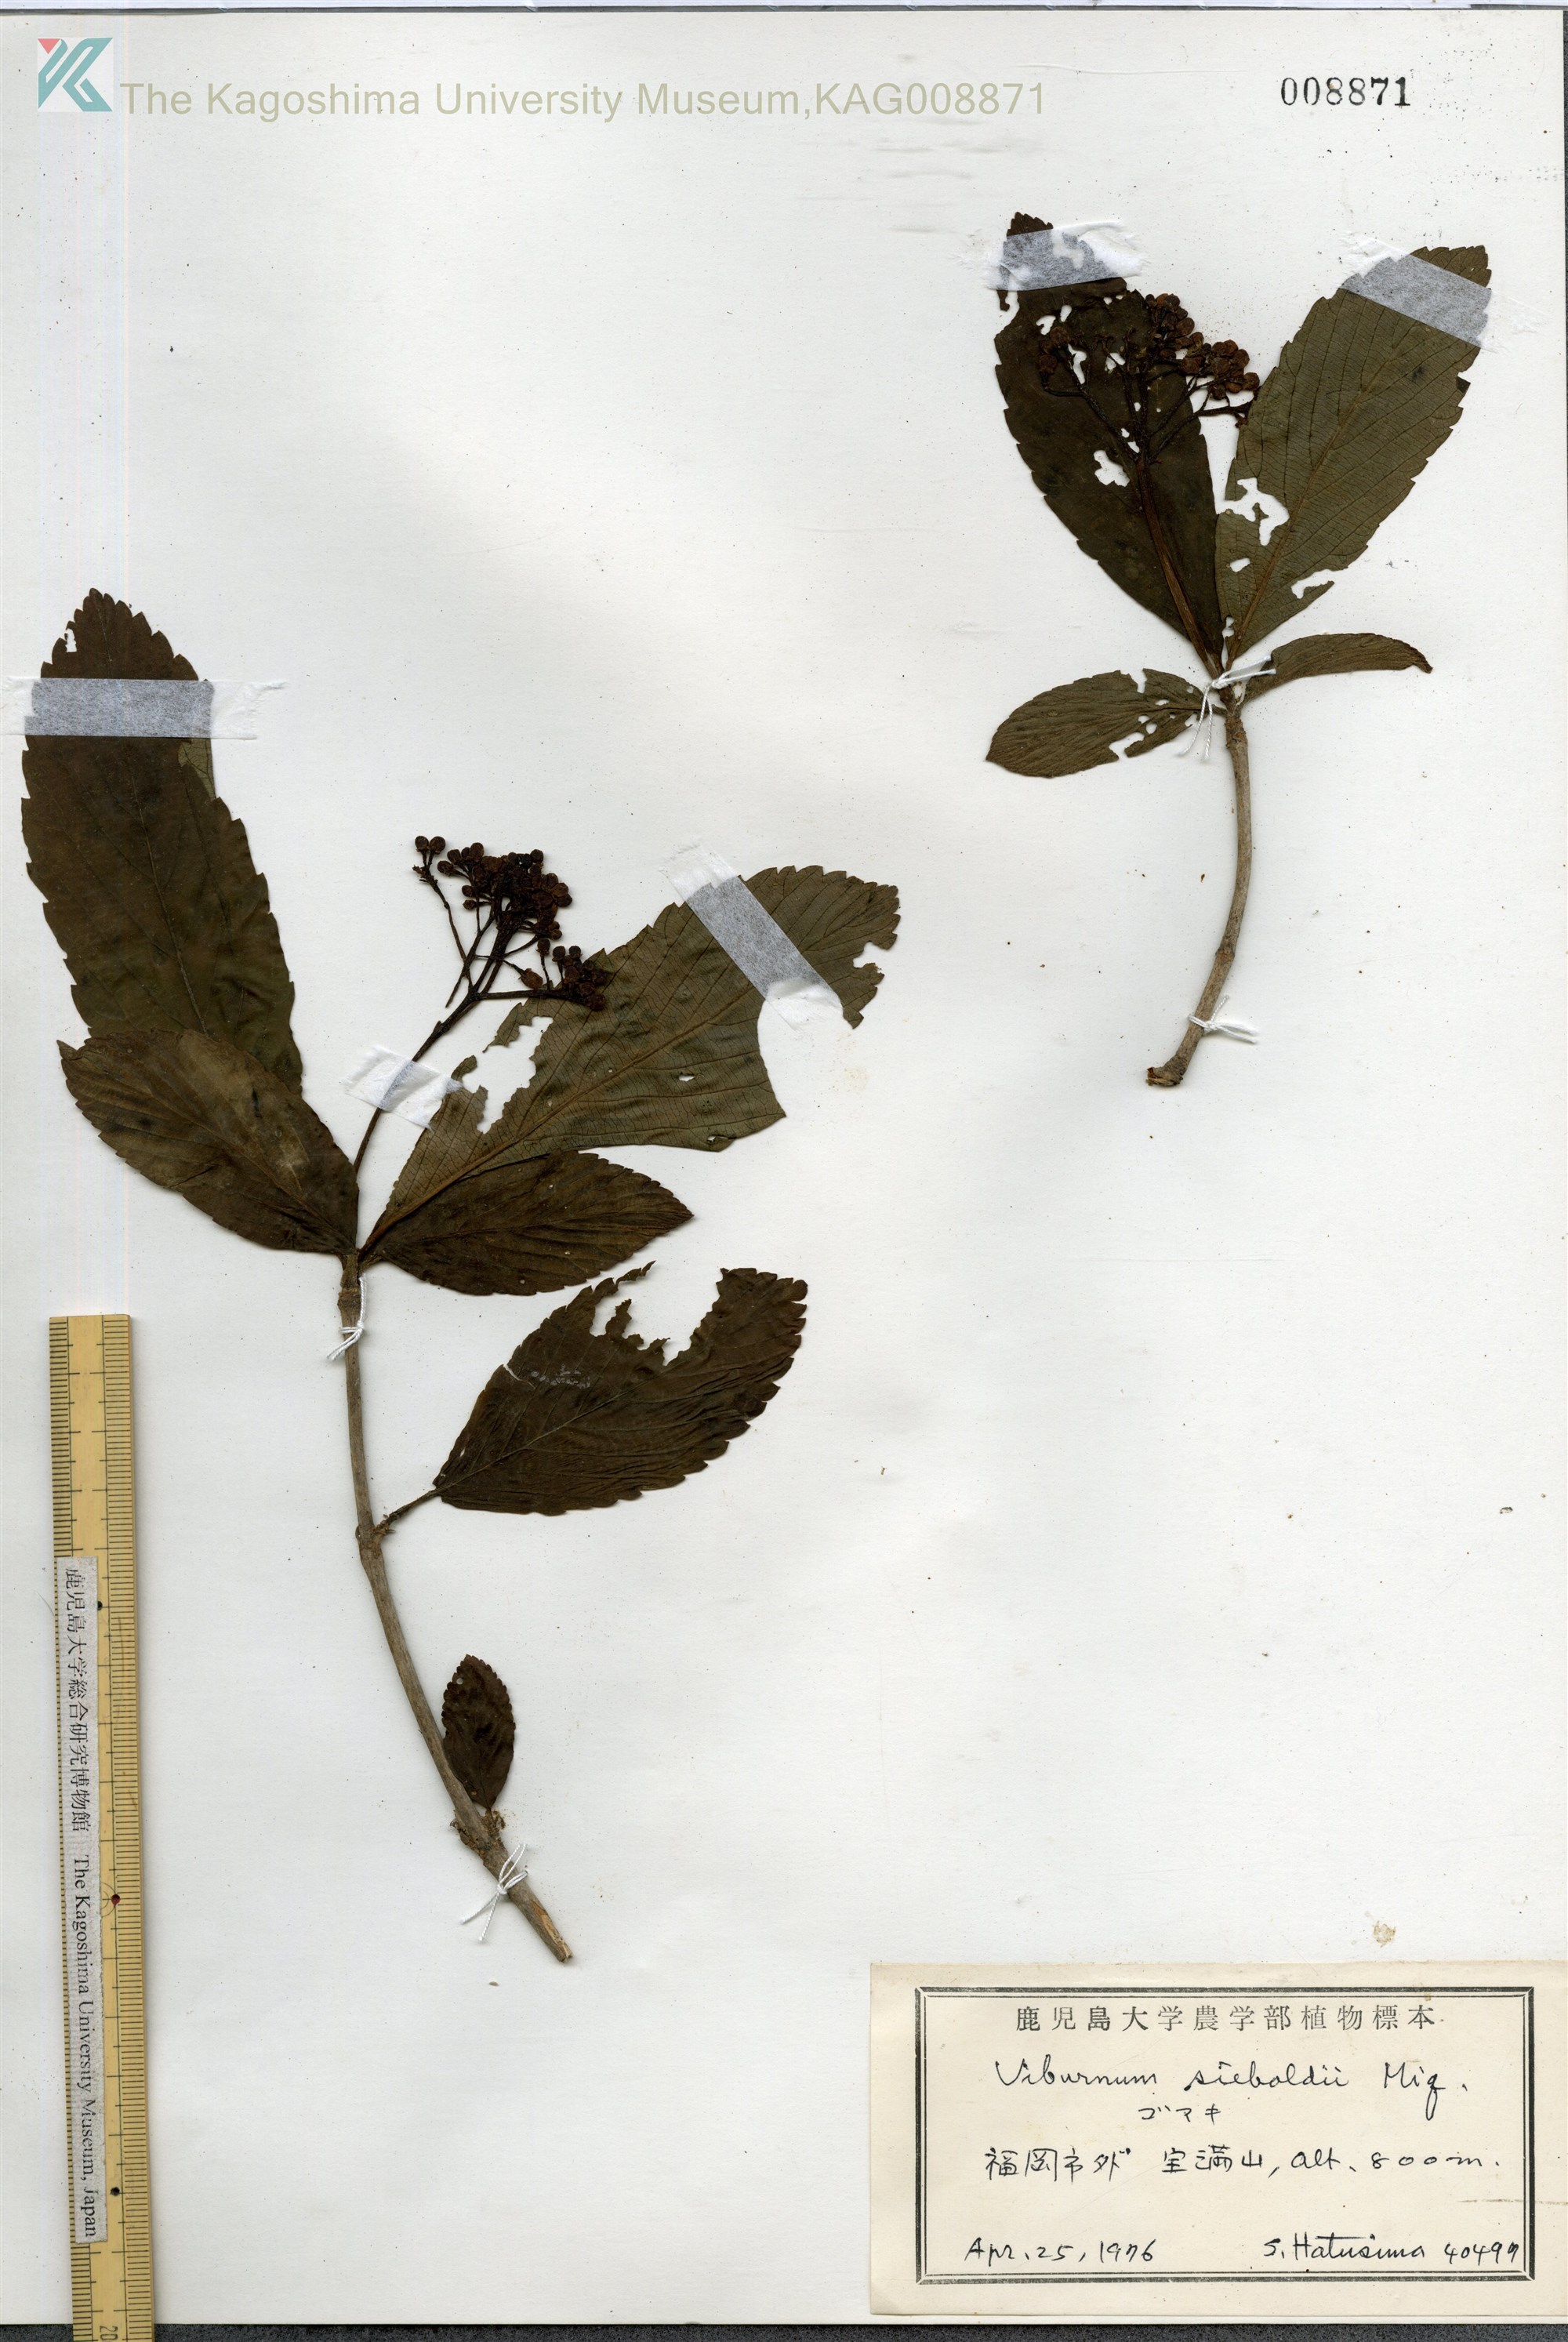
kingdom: Plantae
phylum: Tracheophyta
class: Magnoliopsida
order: Dipsacales
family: Viburnaceae
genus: Viburnum
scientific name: Viburnum sieboldii
